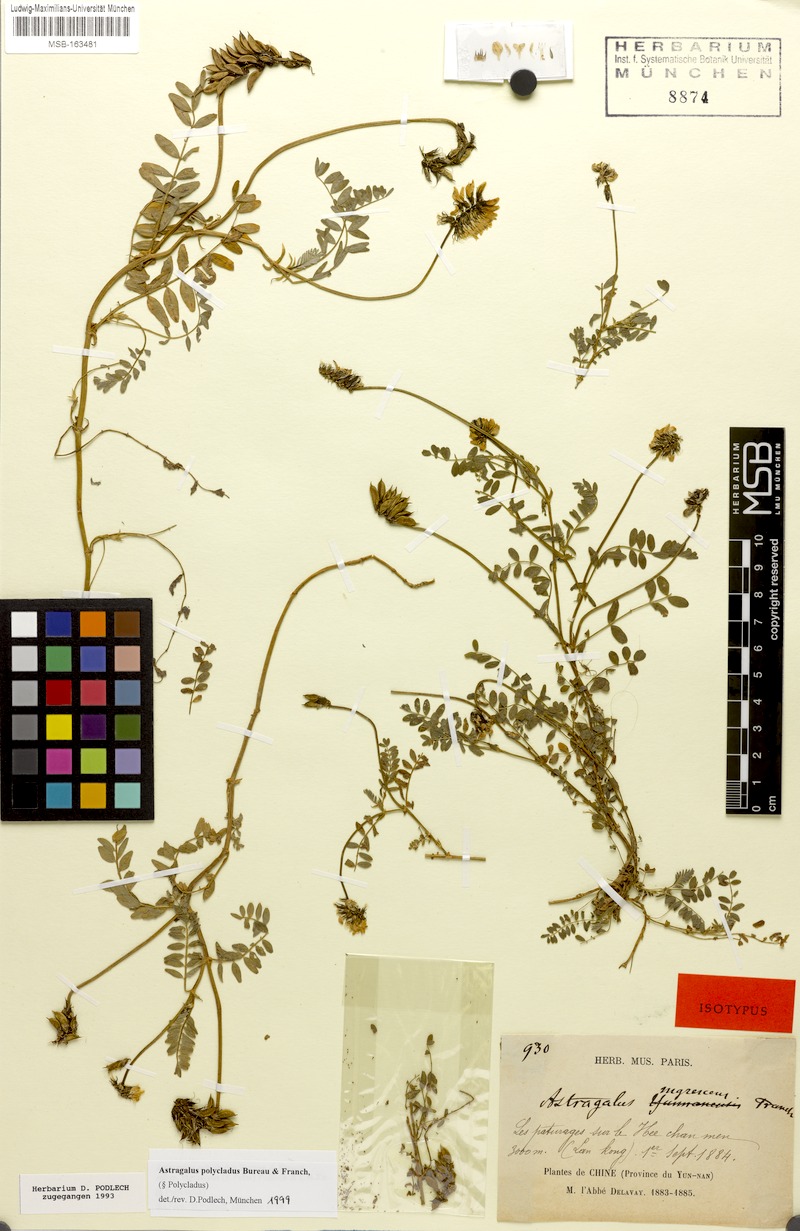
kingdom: Plantae
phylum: Tracheophyta
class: Magnoliopsida
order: Fabales
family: Fabaceae
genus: Astragalus
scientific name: Astragalus polycladus
